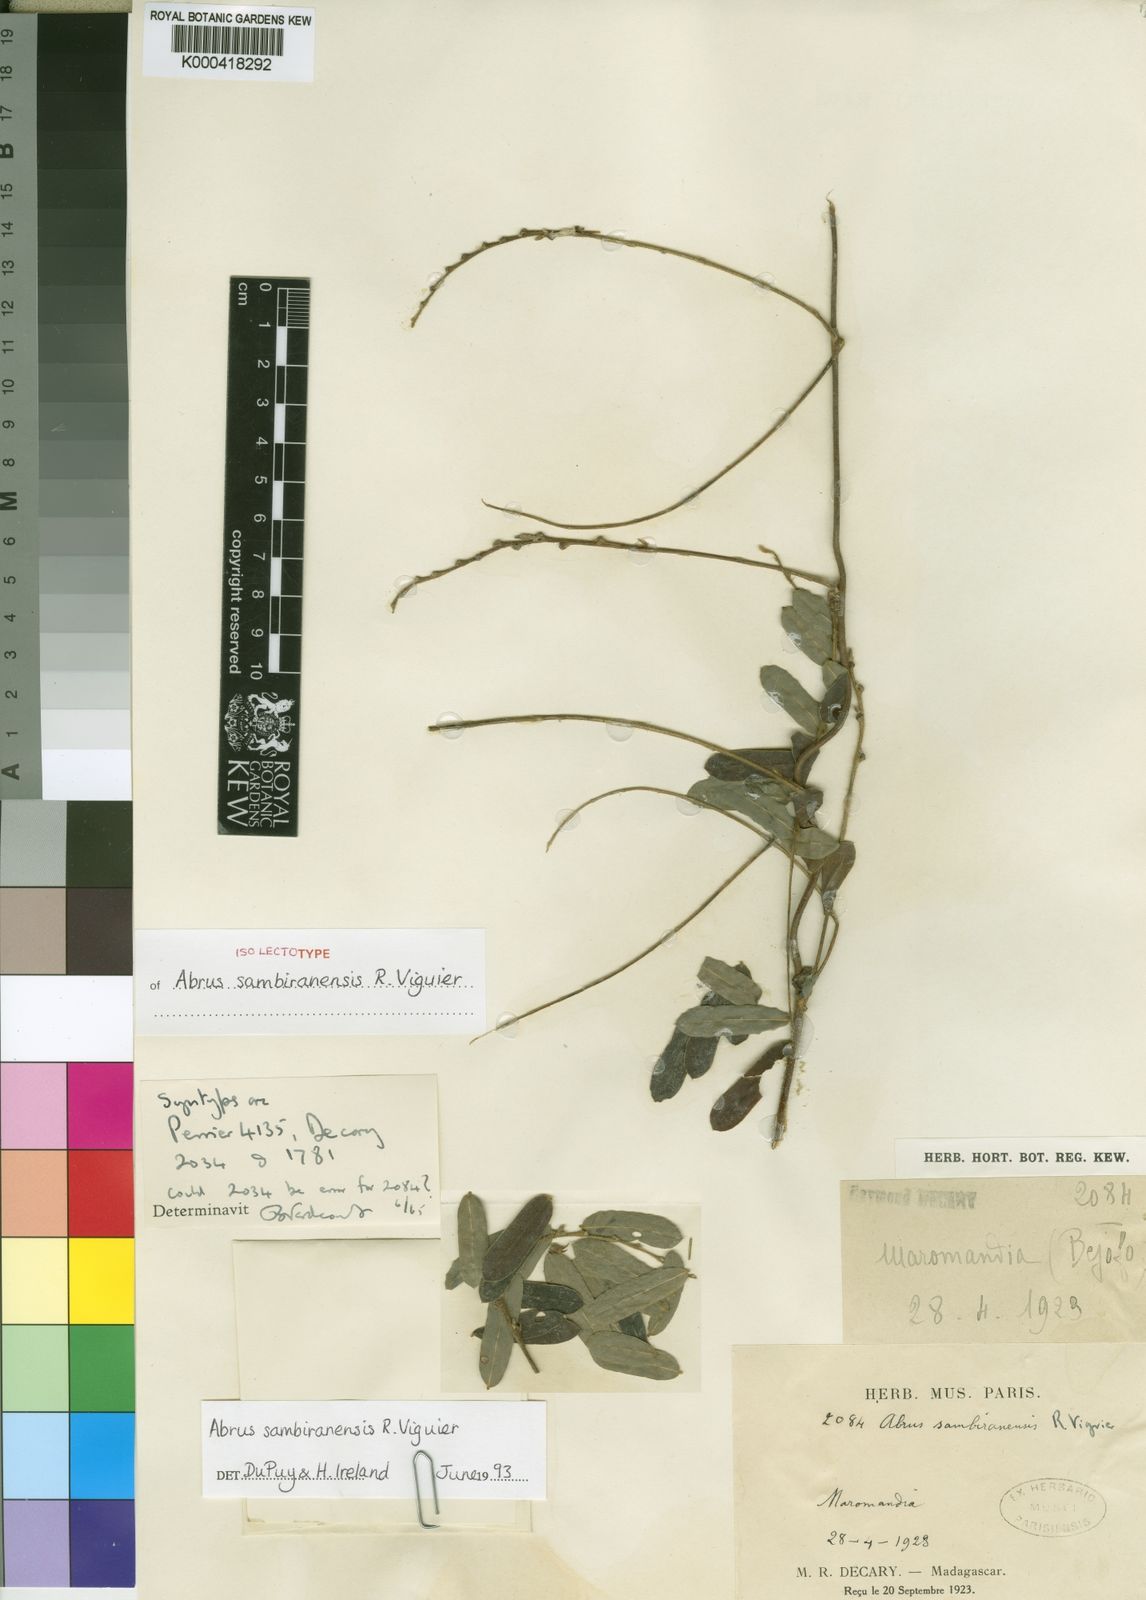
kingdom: Plantae
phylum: Tracheophyta
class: Magnoliopsida
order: Fabales
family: Fabaceae
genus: Abrus
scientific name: Abrus sambiranensis
